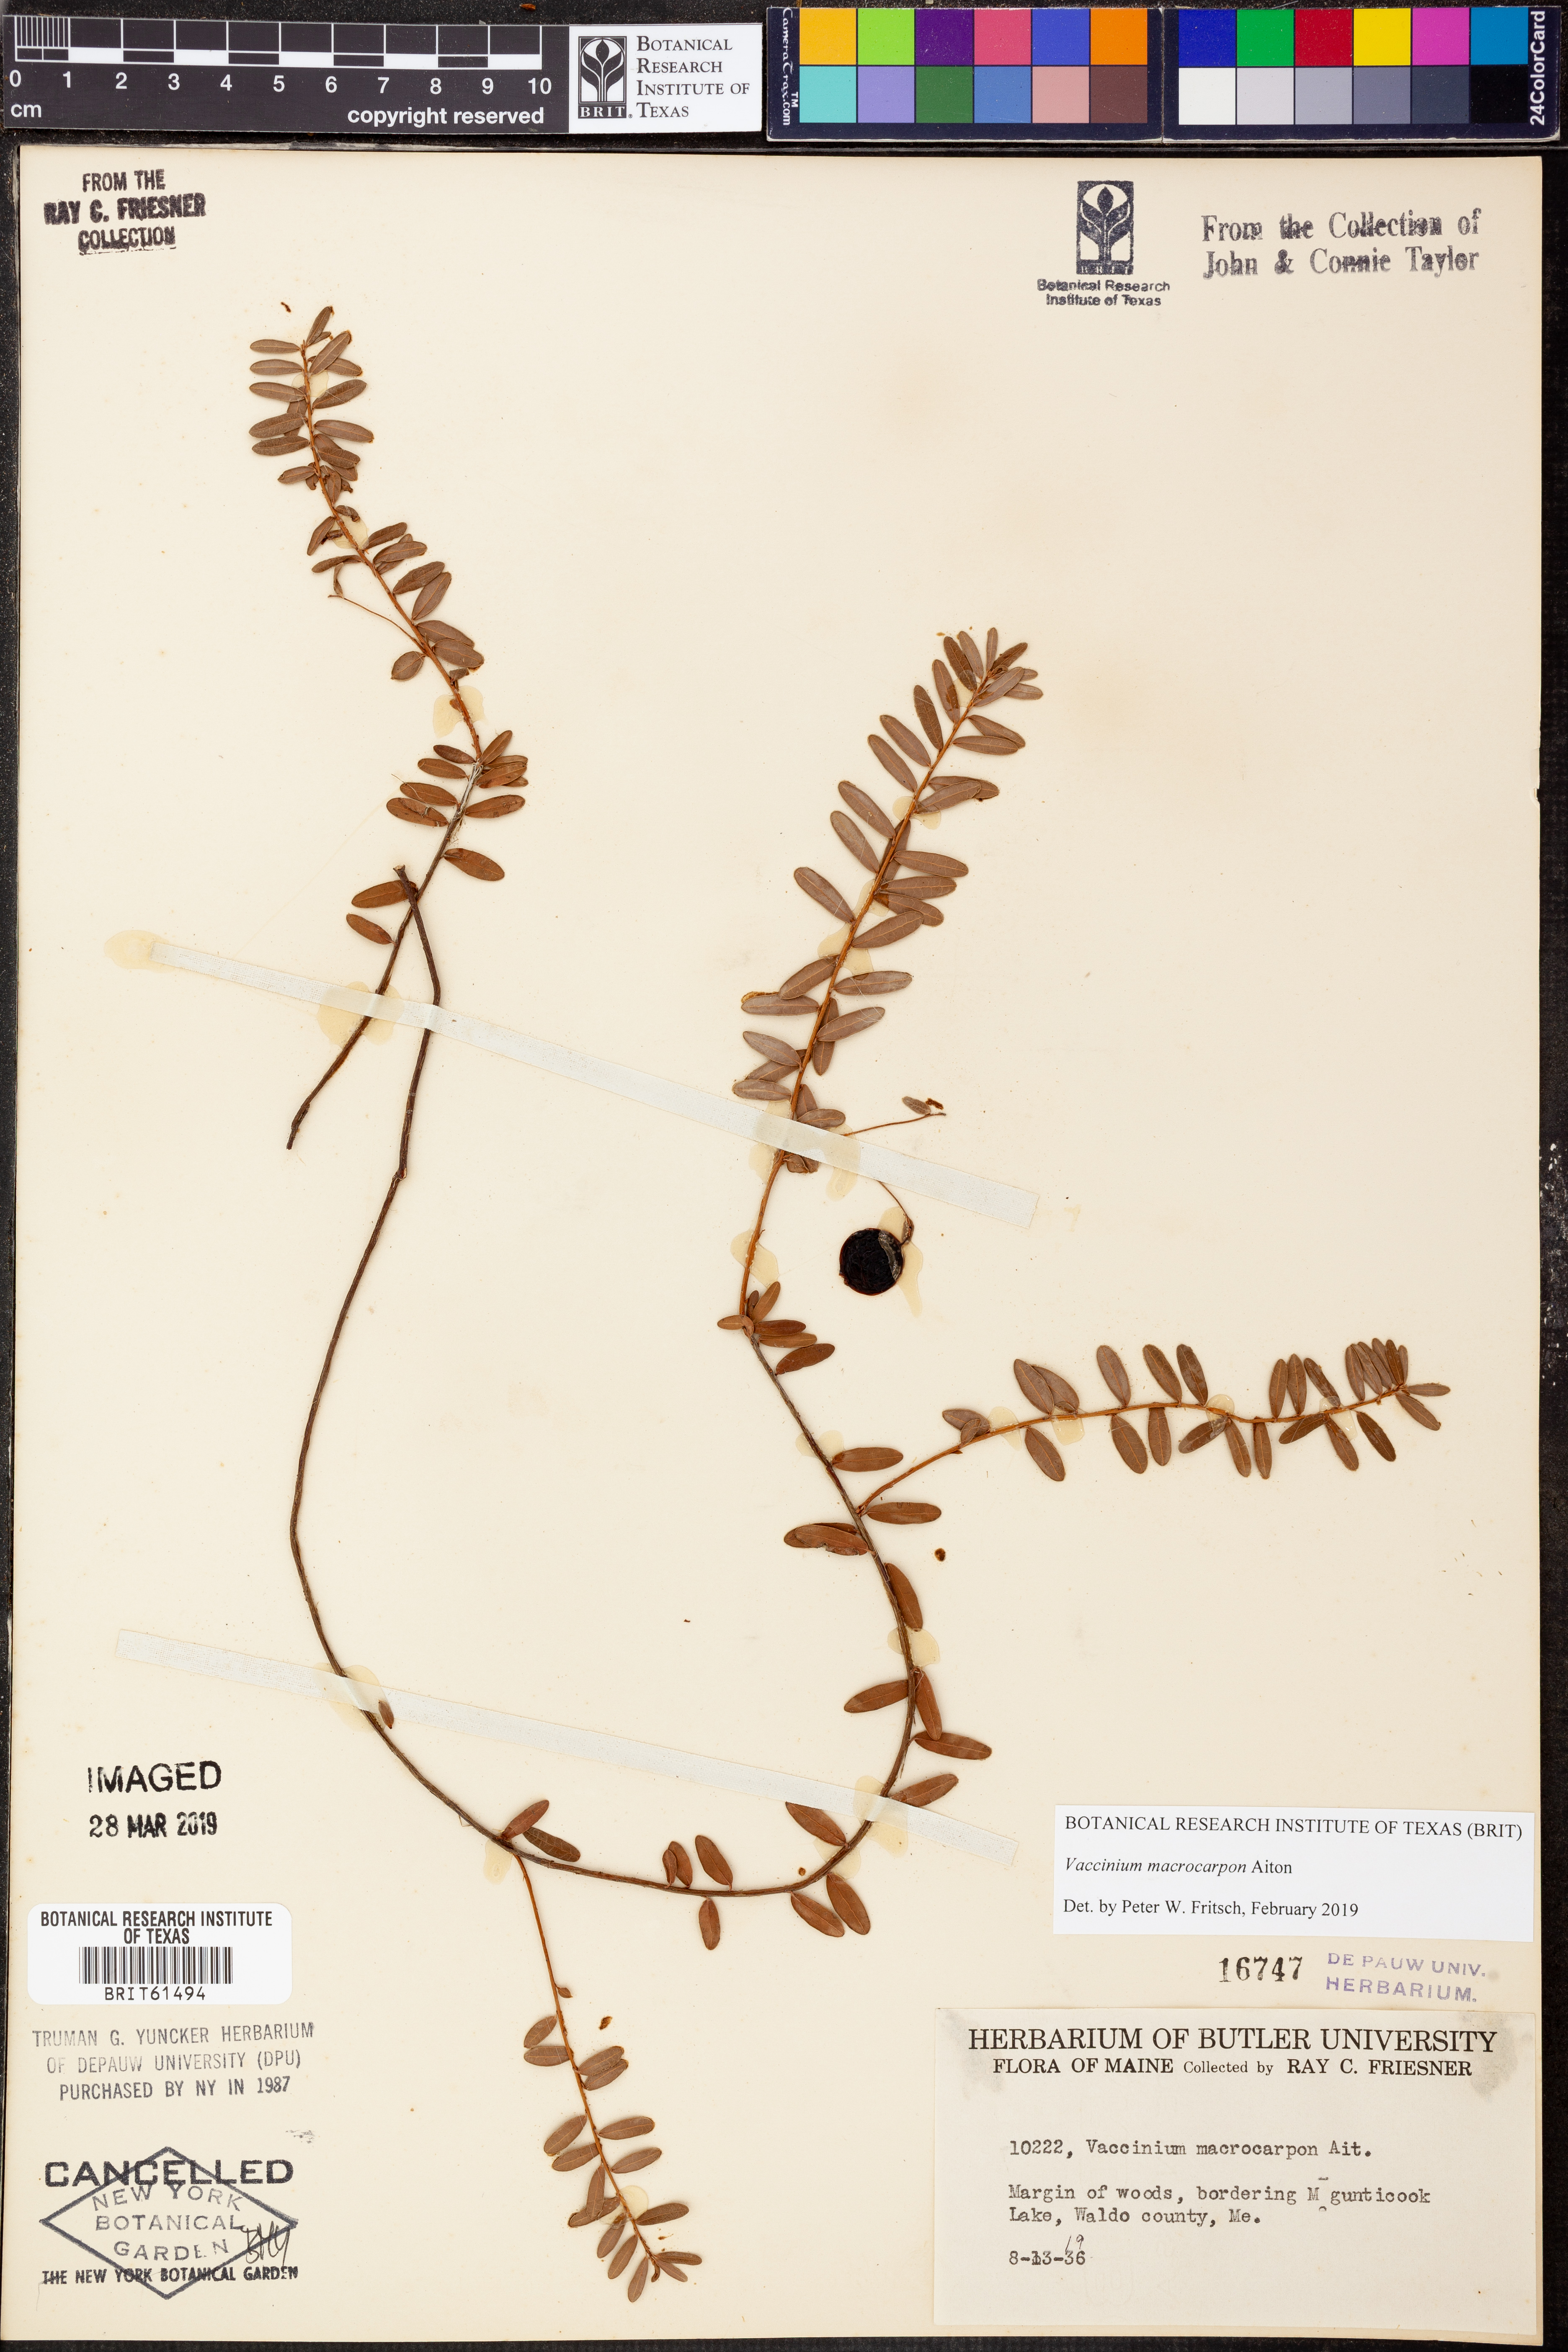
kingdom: Plantae
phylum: Tracheophyta
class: Magnoliopsida
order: Ericales
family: Ericaceae
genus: Vaccinium
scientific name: Vaccinium macrocarpon
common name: American cranberry
